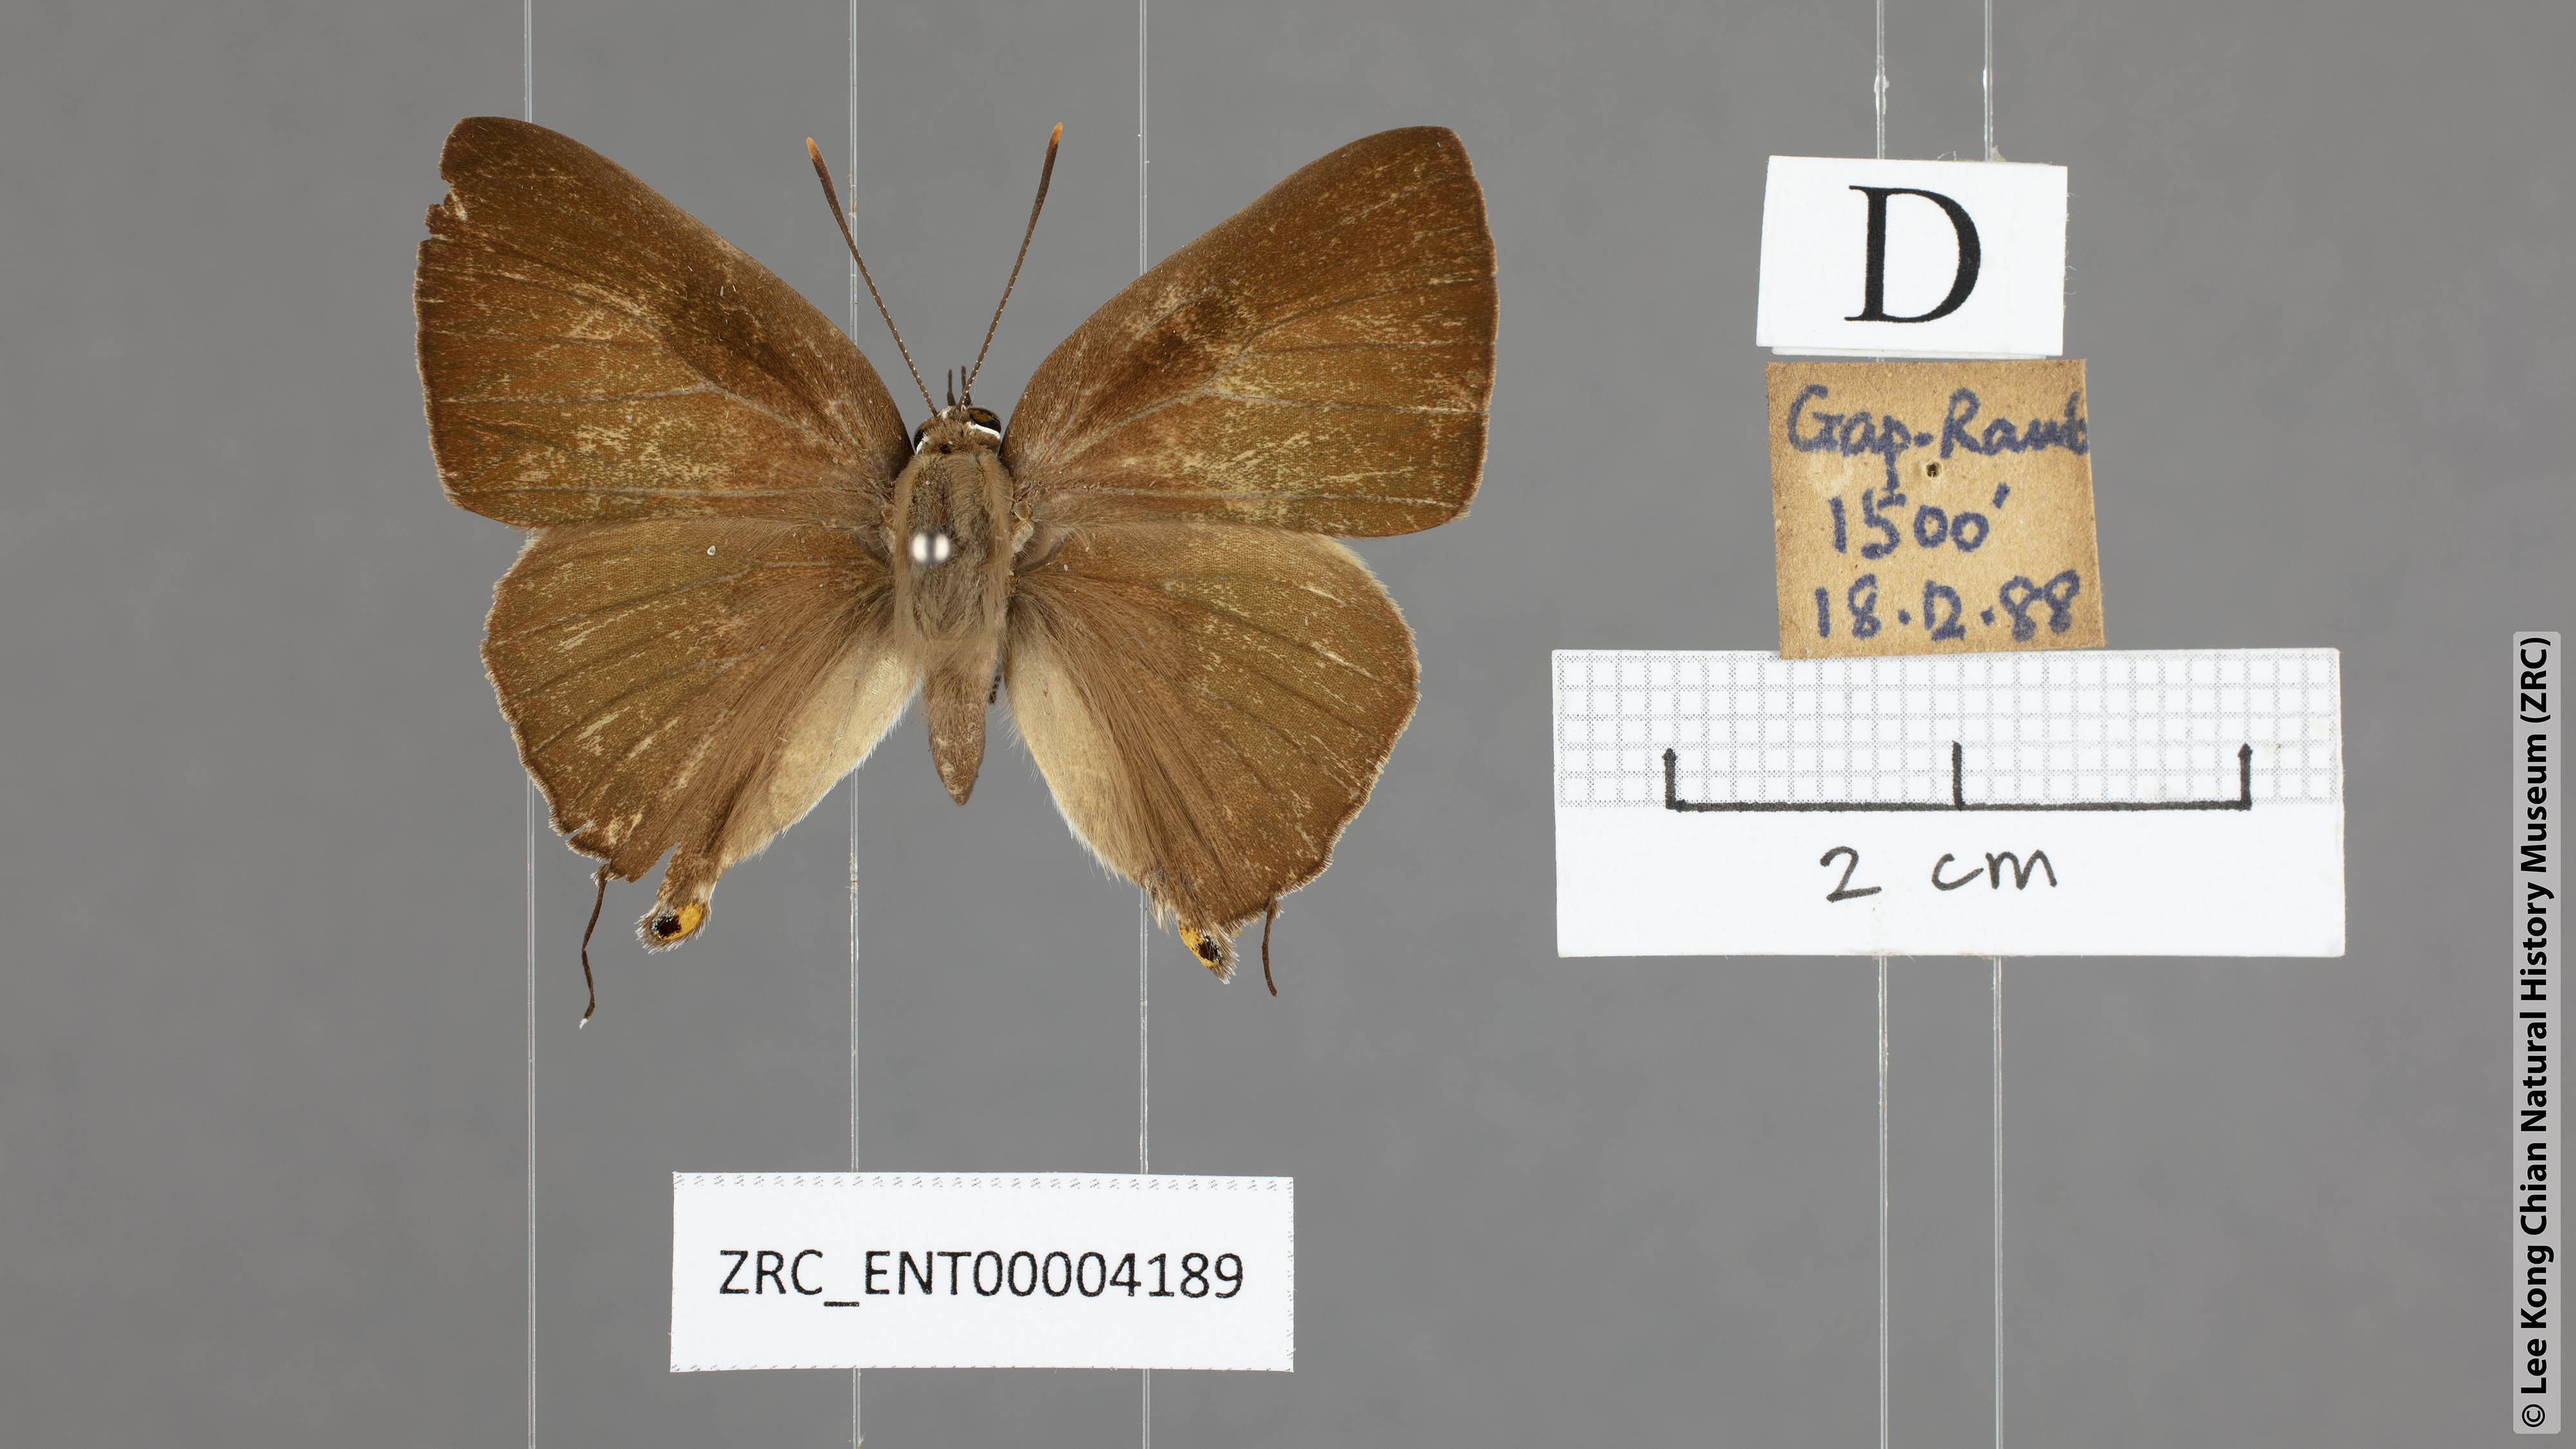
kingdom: Animalia
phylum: Arthropoda
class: Insecta
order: Lepidoptera
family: Lycaenidae
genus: Deudorix
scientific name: Deudorix epijarbas
